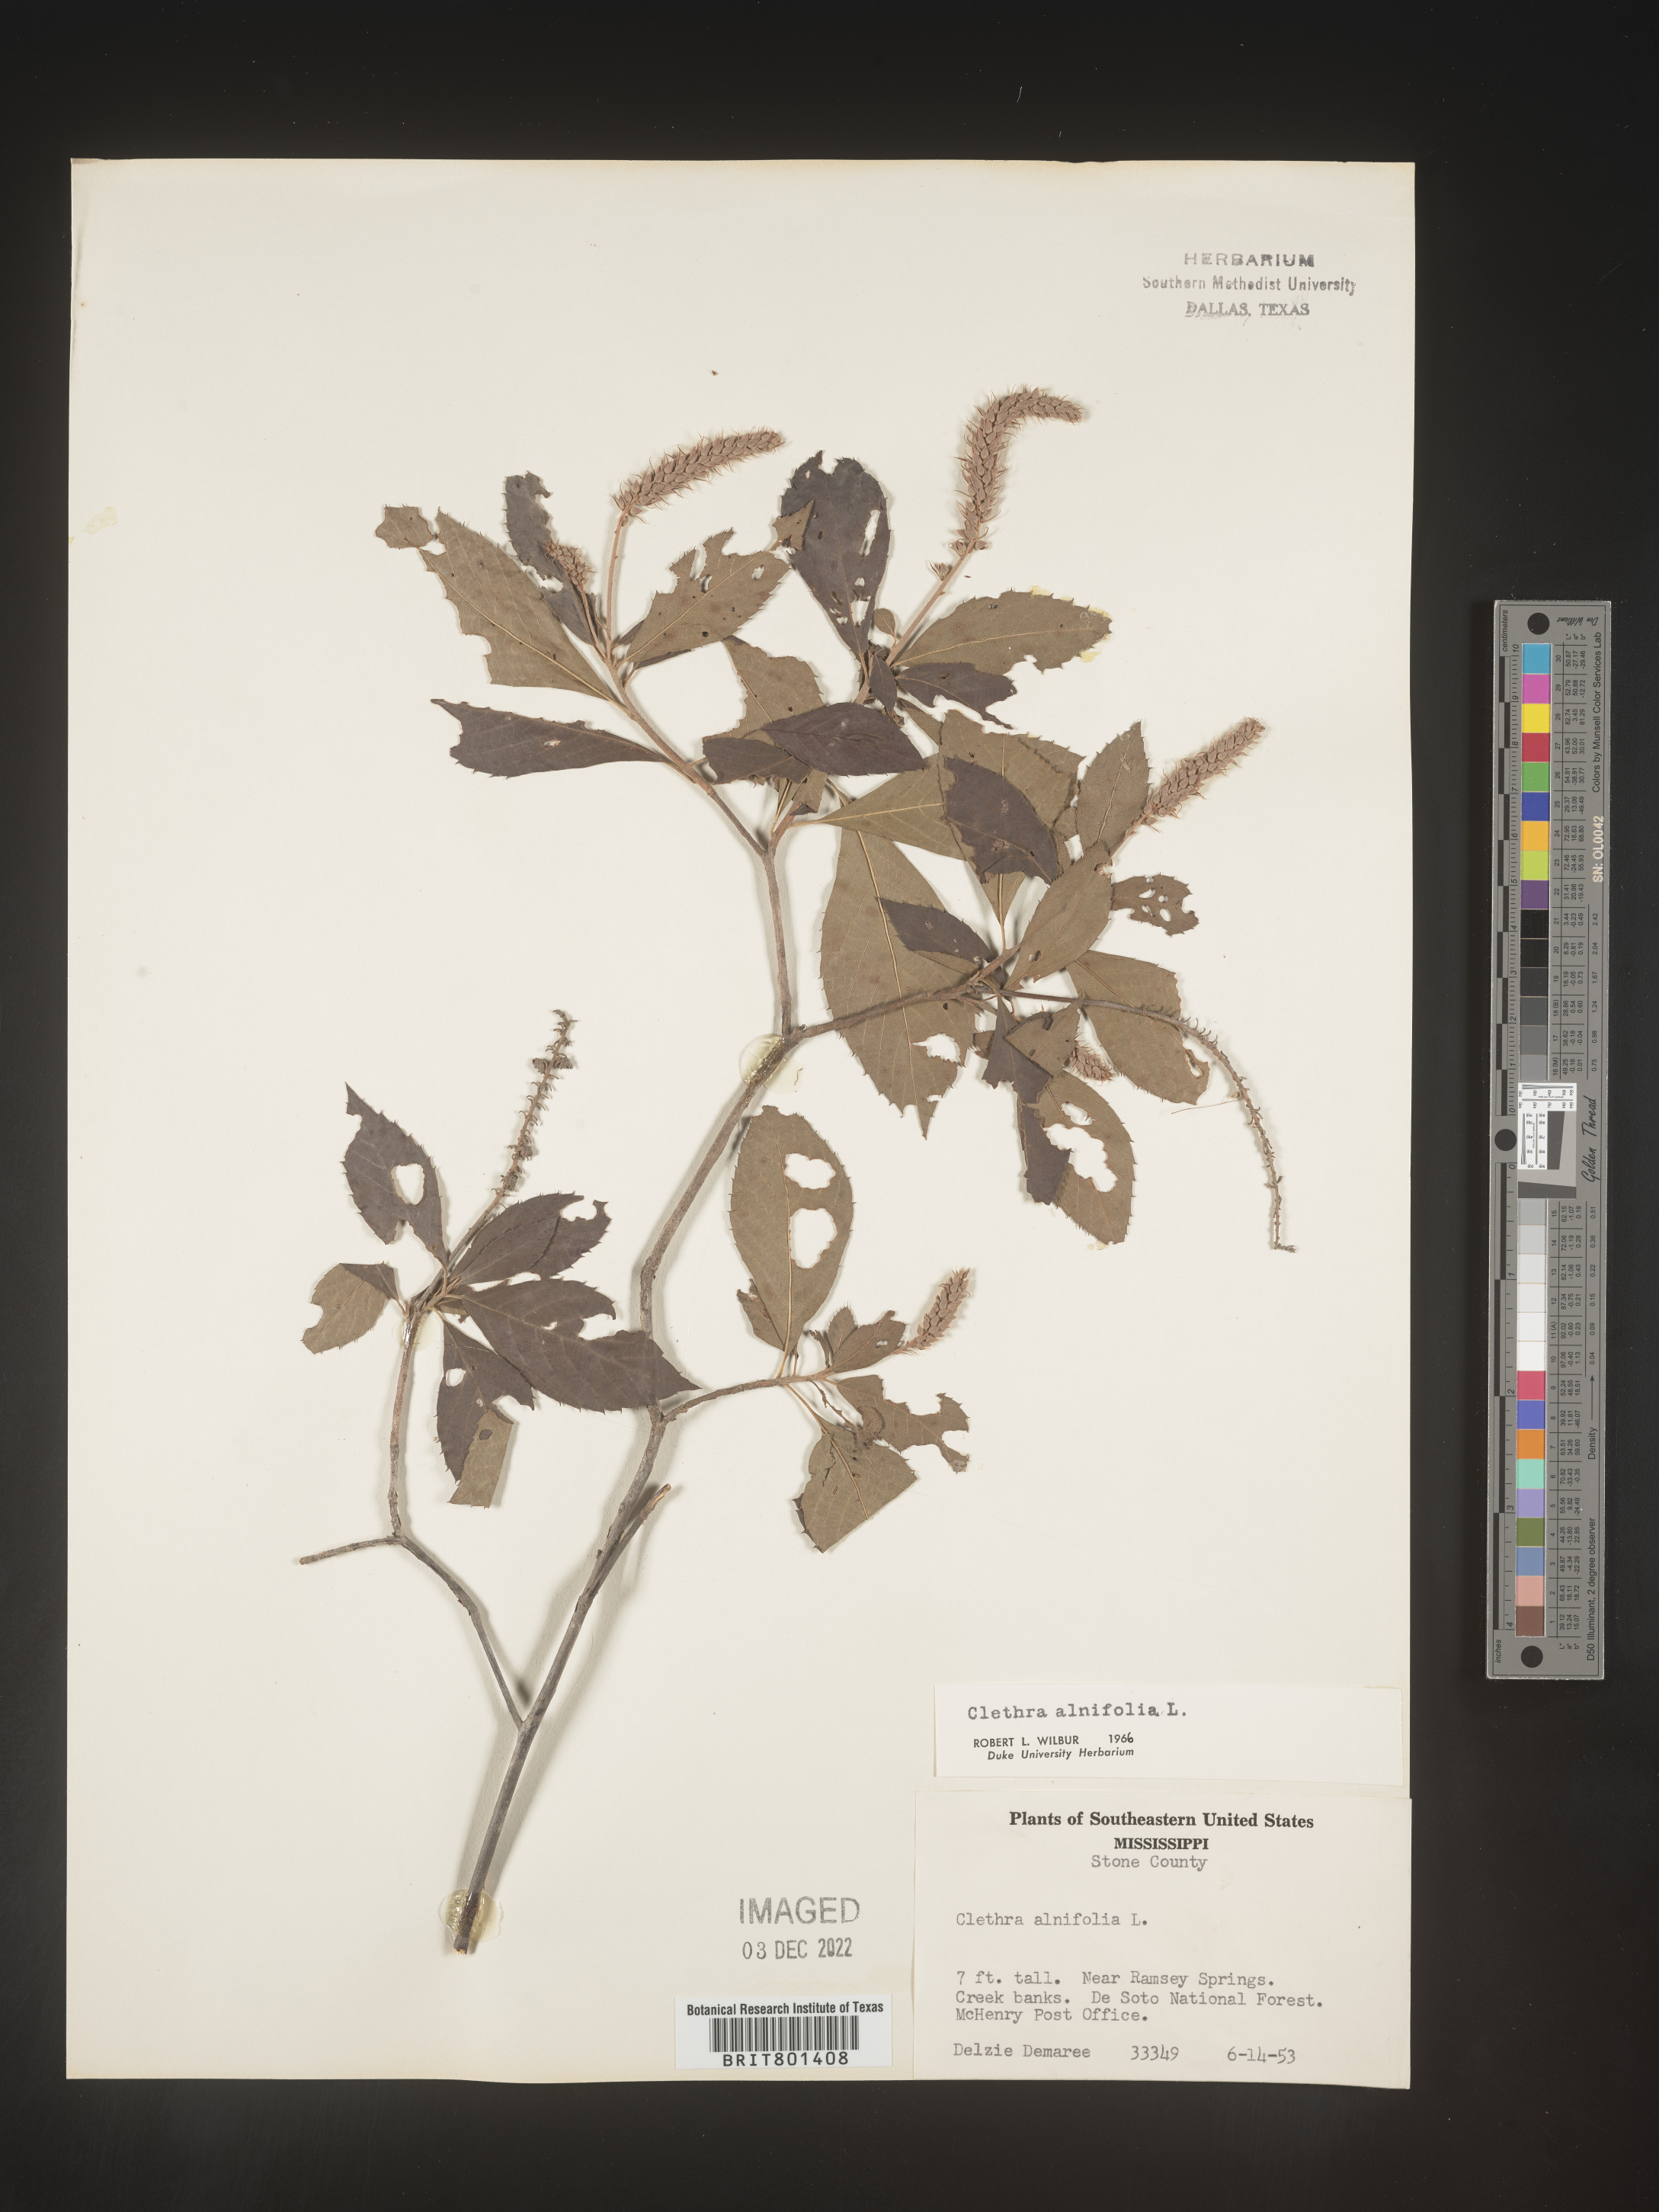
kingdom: Plantae
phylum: Tracheophyta
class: Magnoliopsida
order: Ericales
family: Clethraceae
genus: Clethra
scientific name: Clethra alnifolia
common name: Sweet pepperbush
